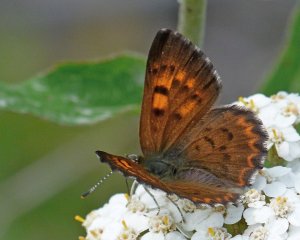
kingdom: Animalia
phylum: Arthropoda
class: Insecta
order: Lepidoptera
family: Lycaenidae
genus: Lycaena
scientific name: Lycaena mariposa
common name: Mariposa Copper
